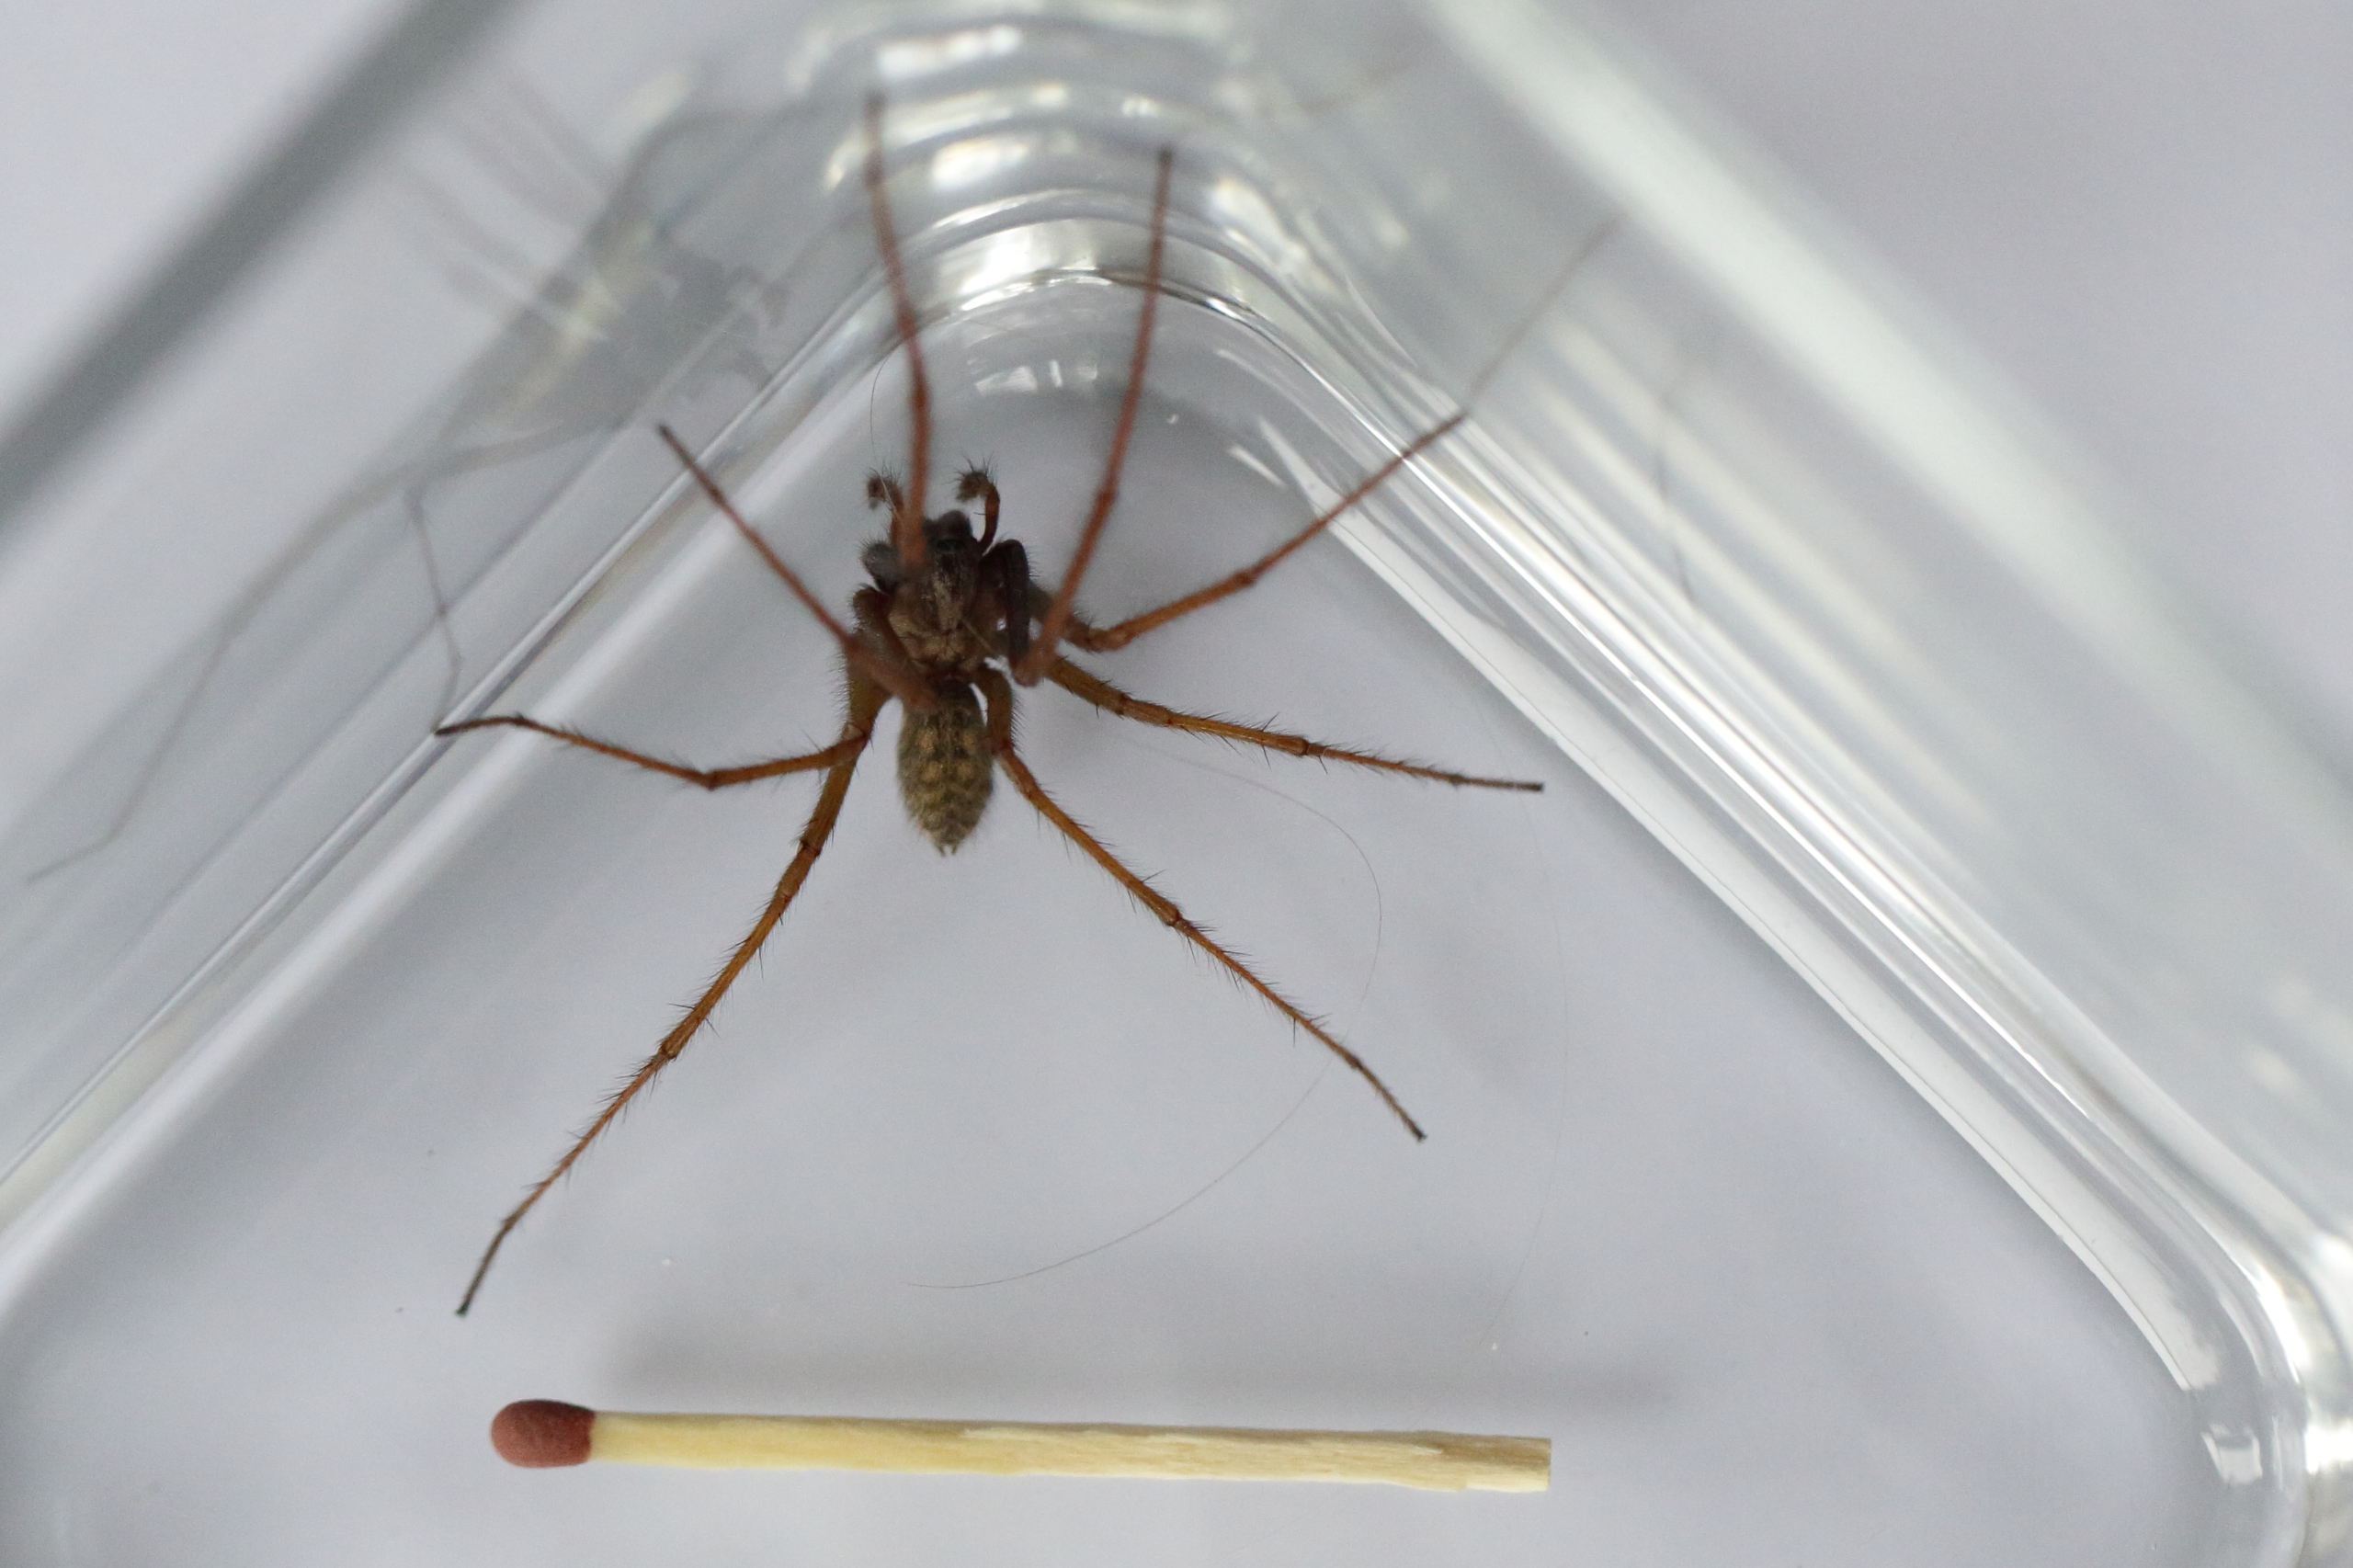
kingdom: Animalia
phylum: Arthropoda
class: Arachnida
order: Araneae
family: Agelenidae
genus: Eratigena
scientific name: Eratigena atrica
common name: Stor husedderkop
